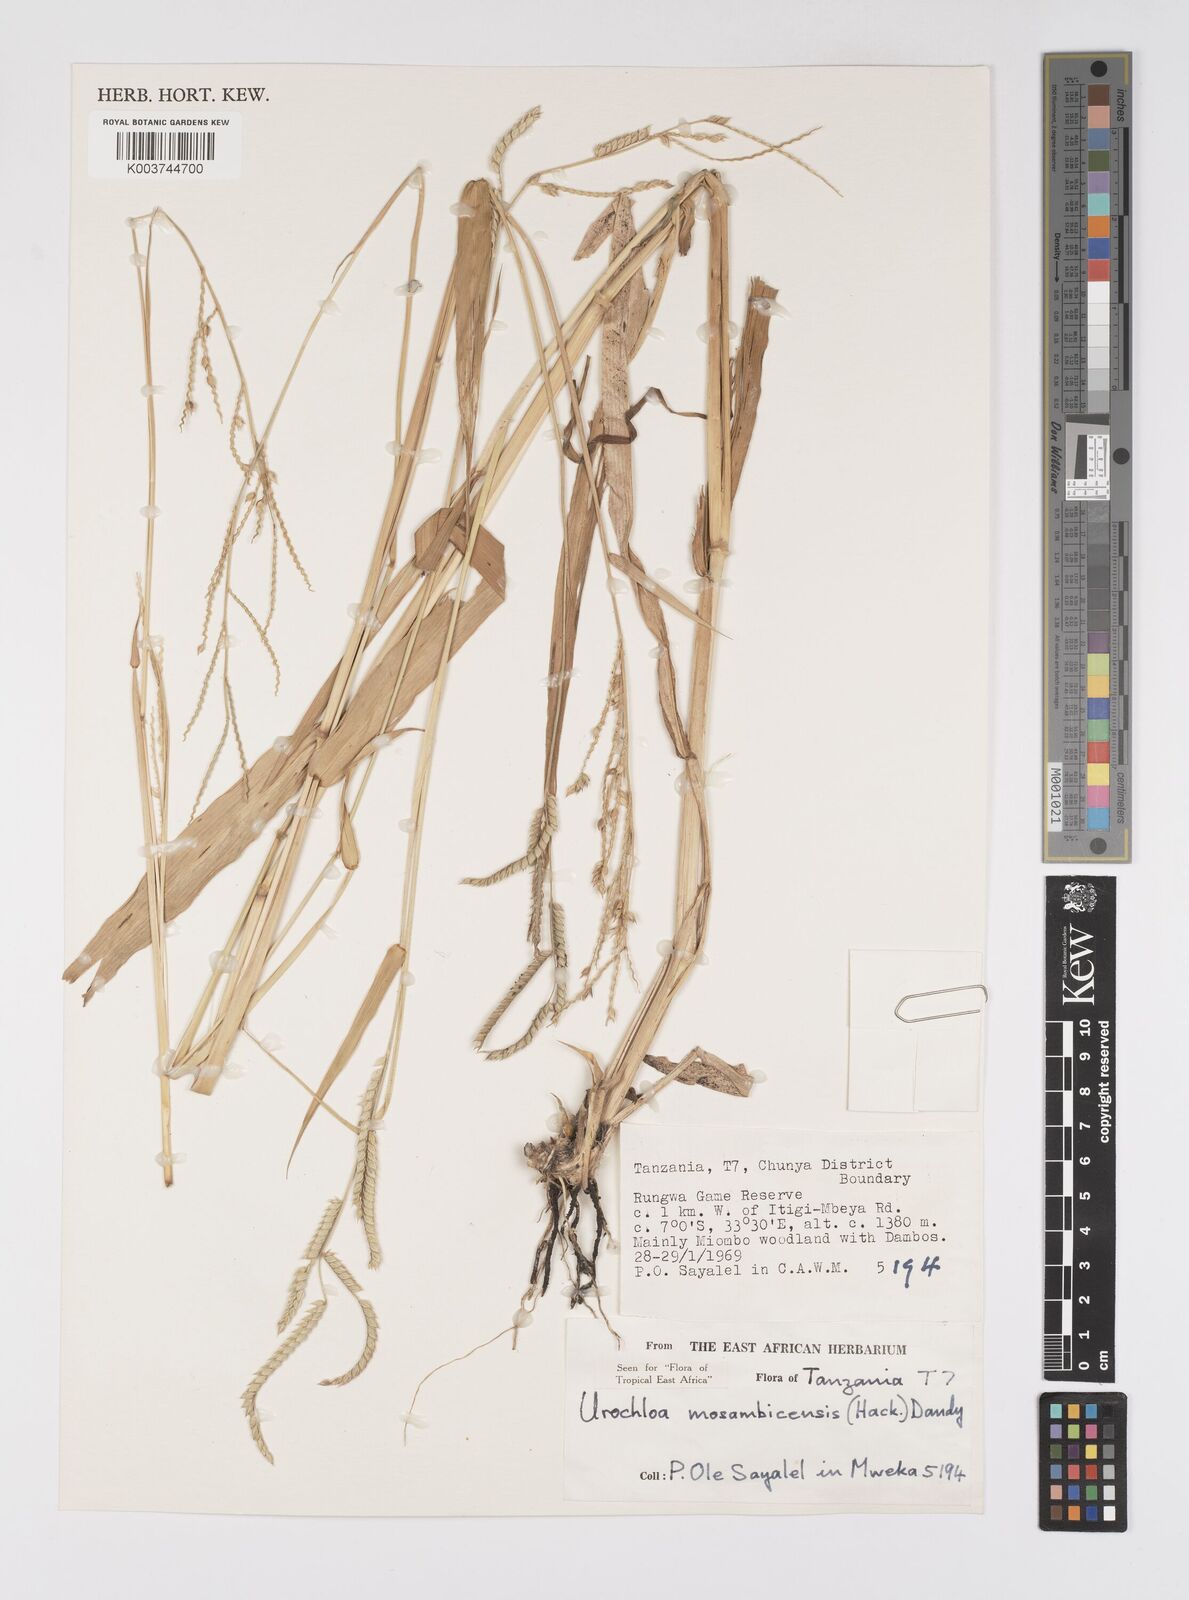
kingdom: Plantae
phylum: Tracheophyta
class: Liliopsida
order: Poales
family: Poaceae
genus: Urochloa
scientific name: Urochloa trichopus
